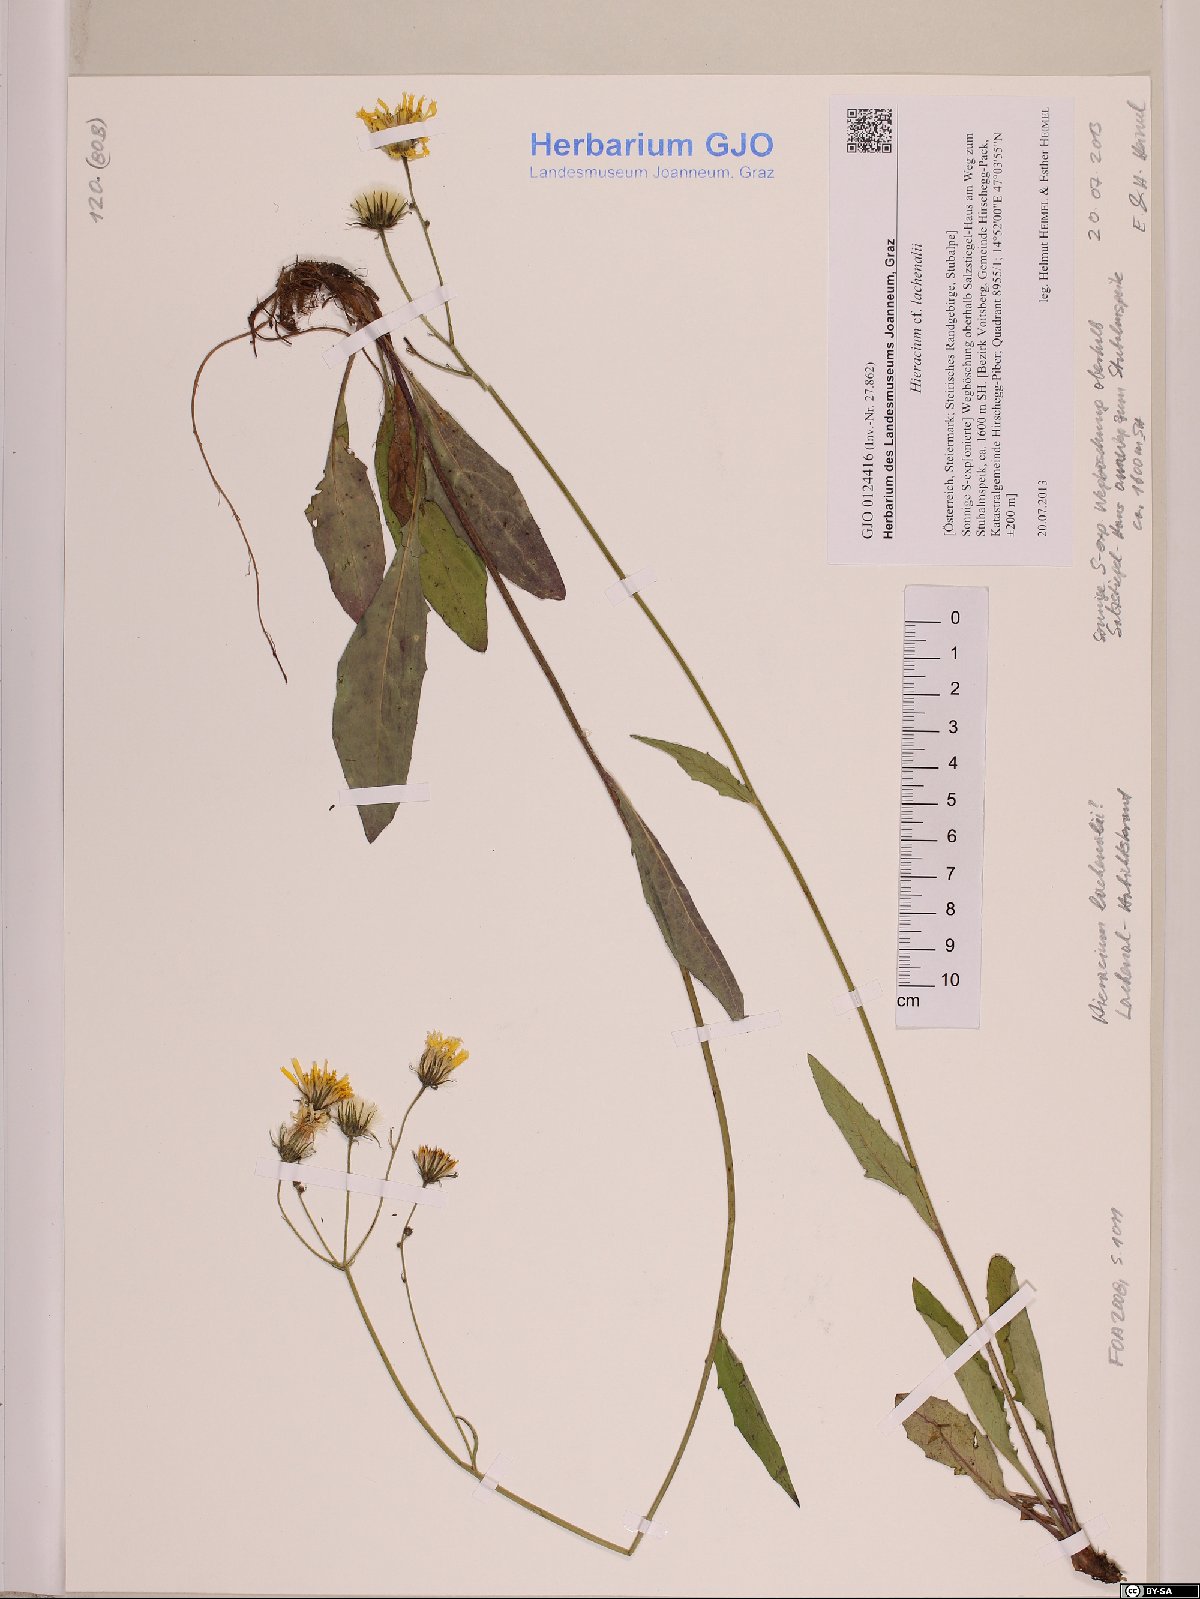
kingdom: Plantae
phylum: Tracheophyta
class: Magnoliopsida
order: Asterales
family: Asteraceae
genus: Hieracium
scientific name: Hieracium lachenalii
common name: Common hawkweed
